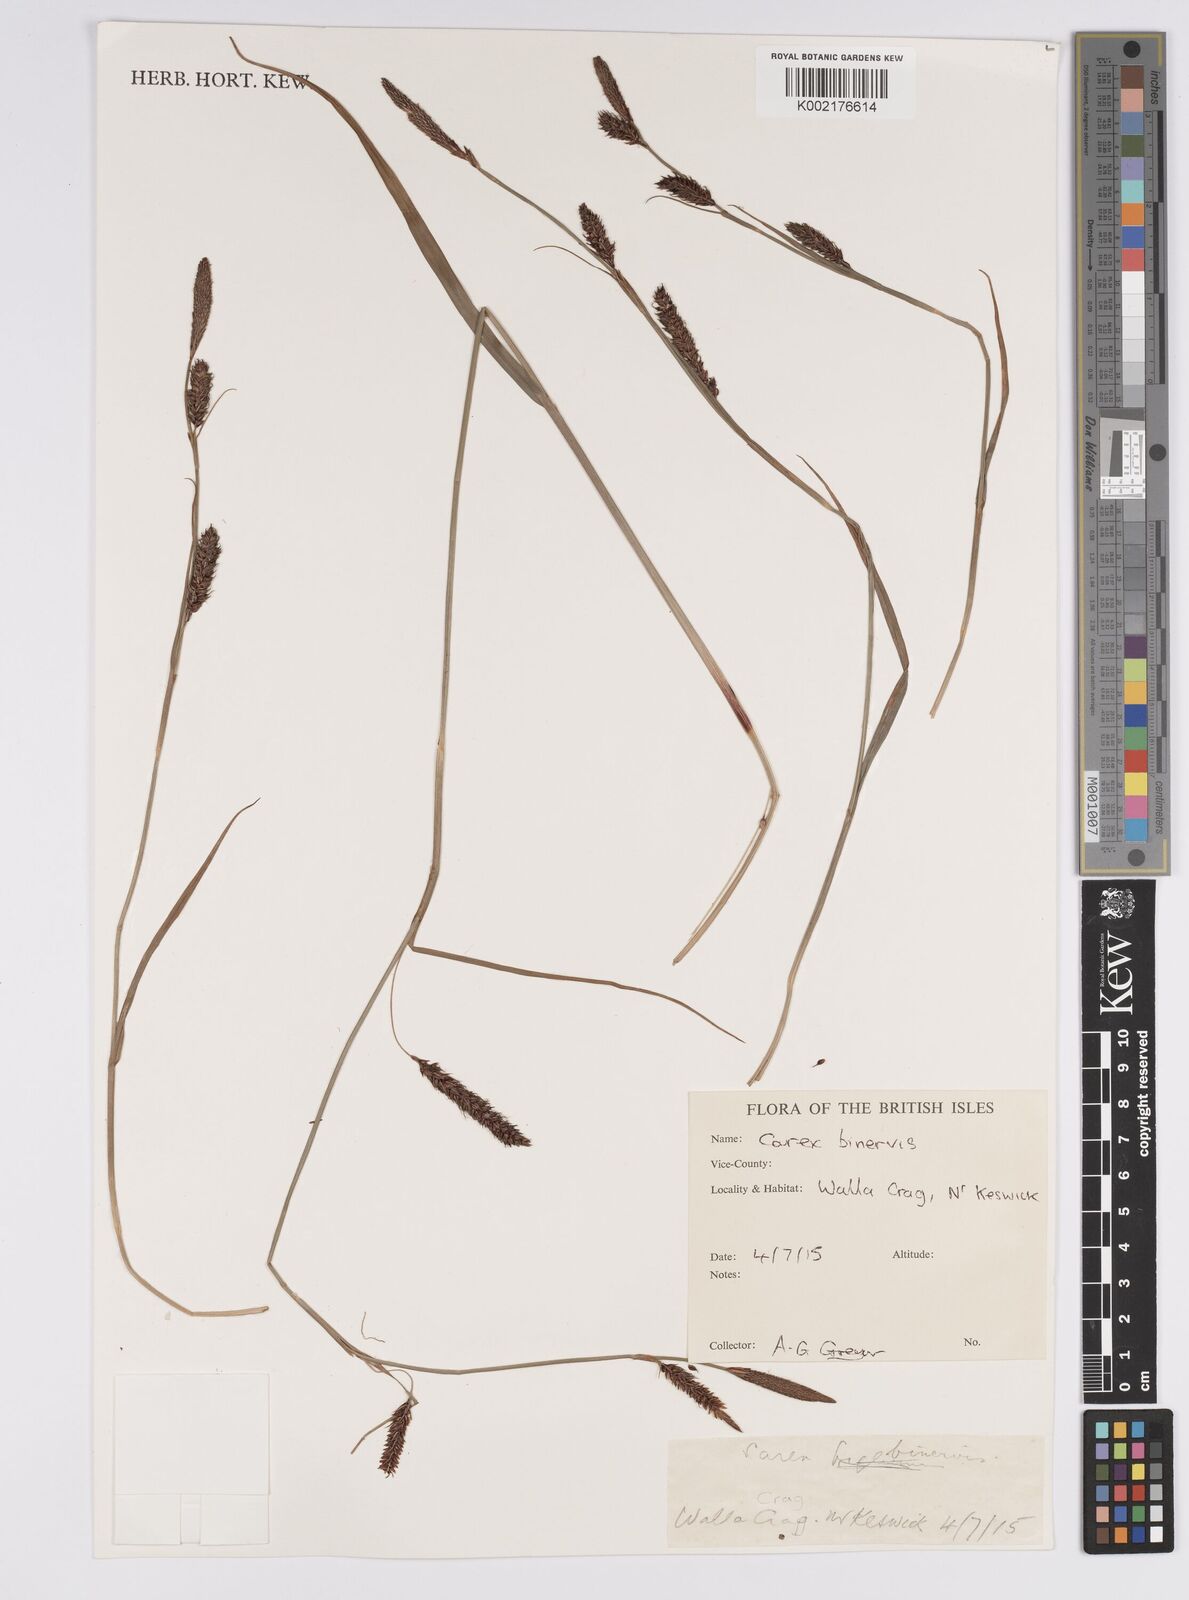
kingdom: Plantae
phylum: Tracheophyta
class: Liliopsida
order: Poales
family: Cyperaceae
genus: Carex
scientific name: Carex binervis
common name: Green-ribbed sedge
